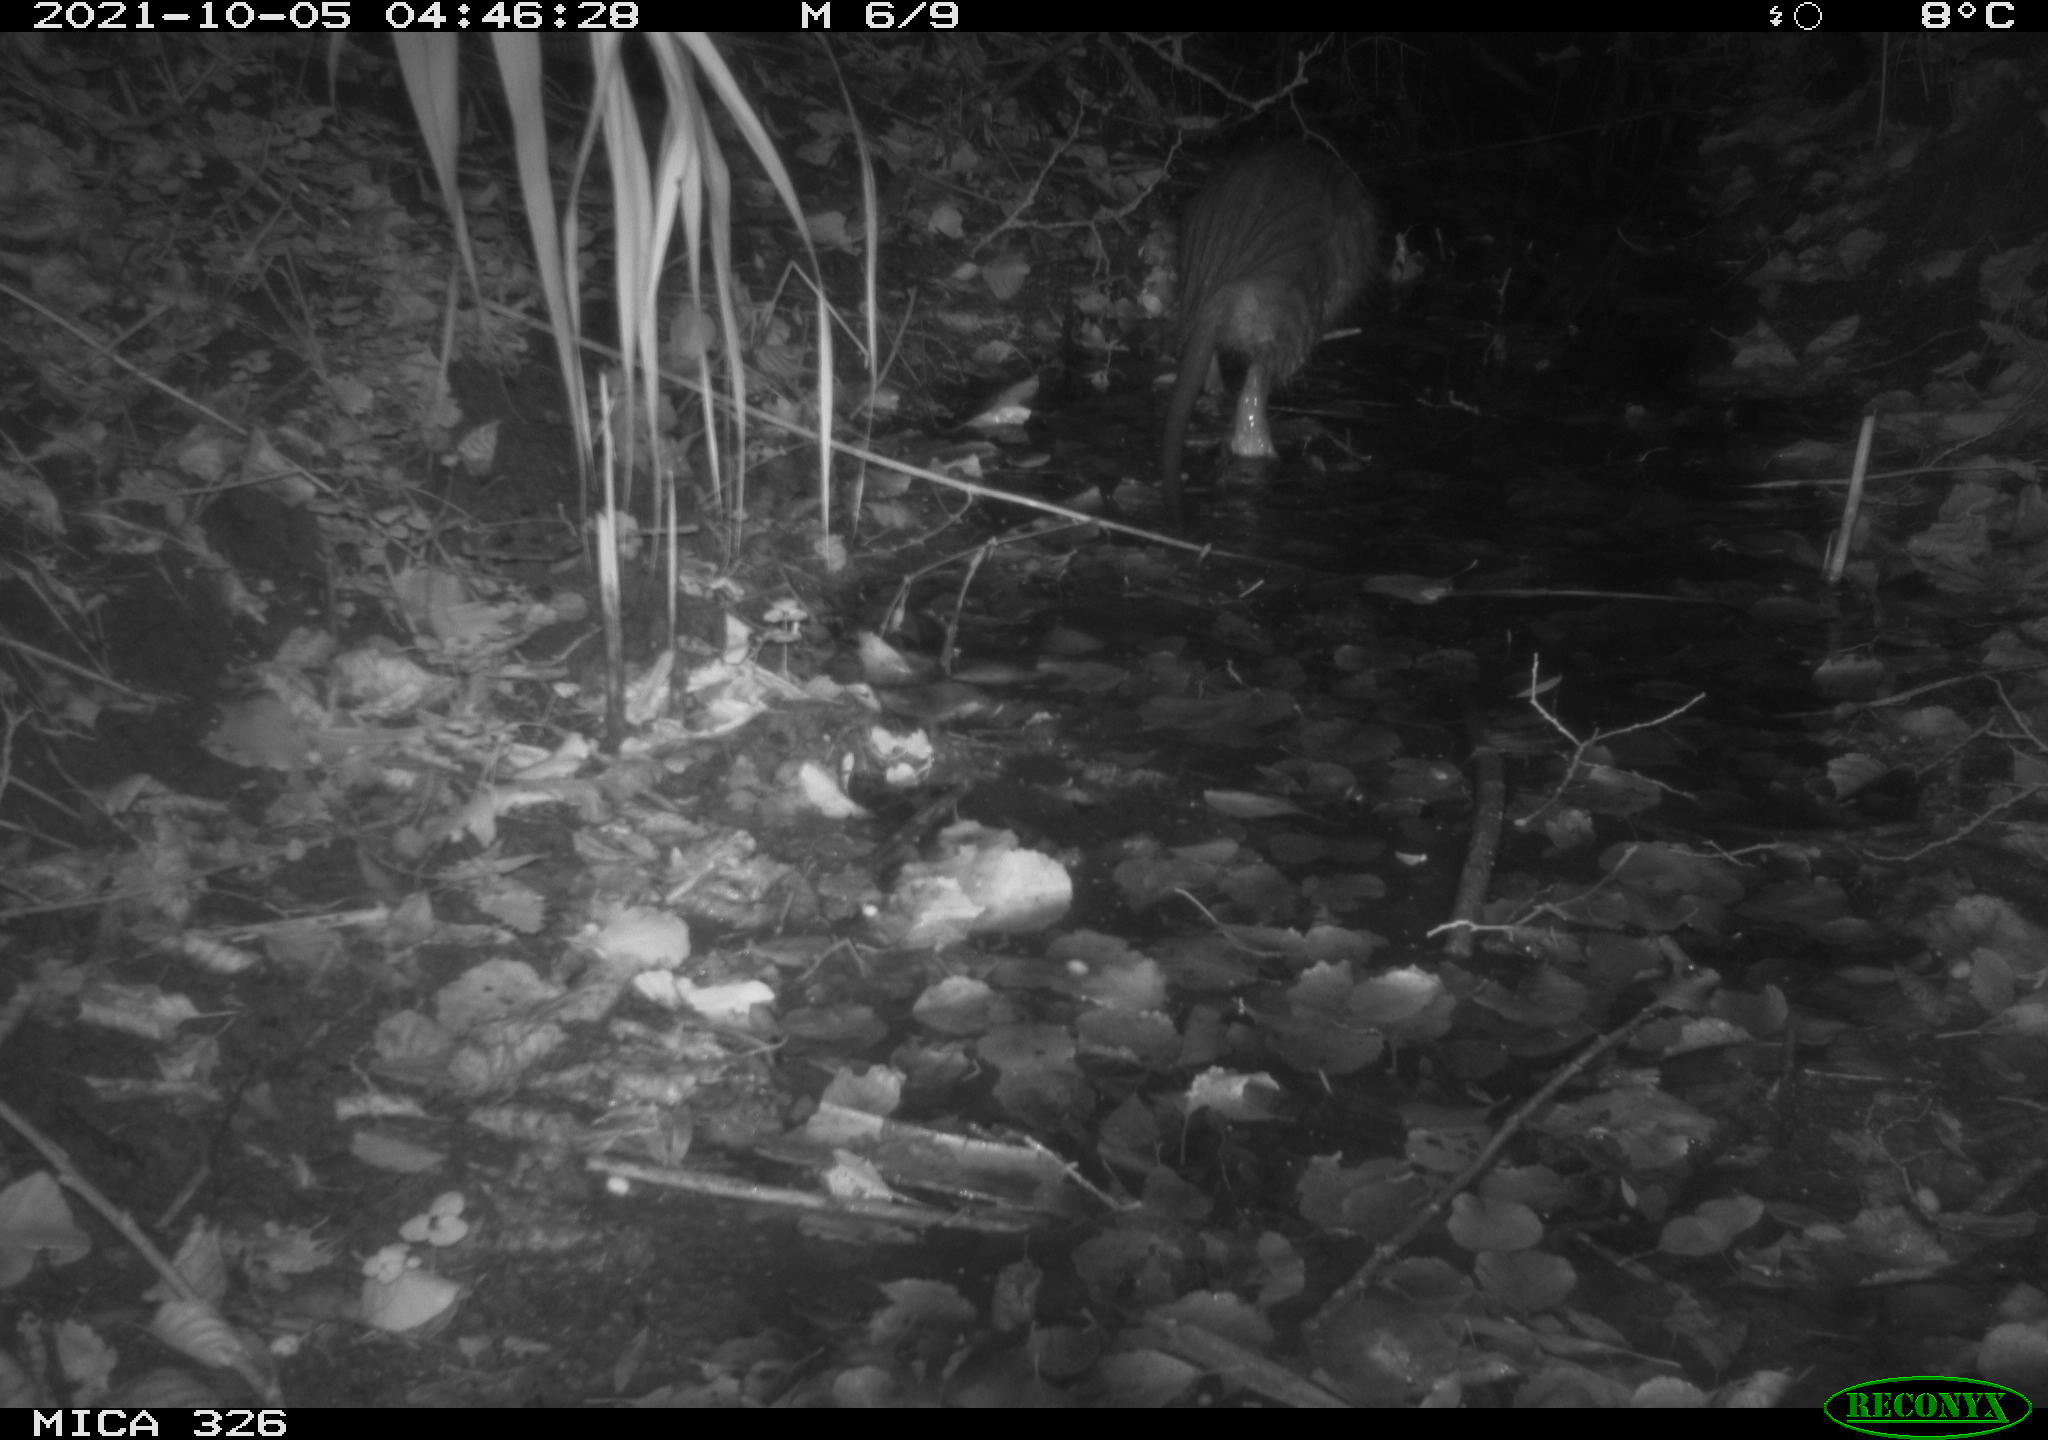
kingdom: Animalia
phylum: Chordata
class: Mammalia
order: Rodentia
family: Myocastoridae
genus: Myocastor
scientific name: Myocastor coypus
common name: Coypu
